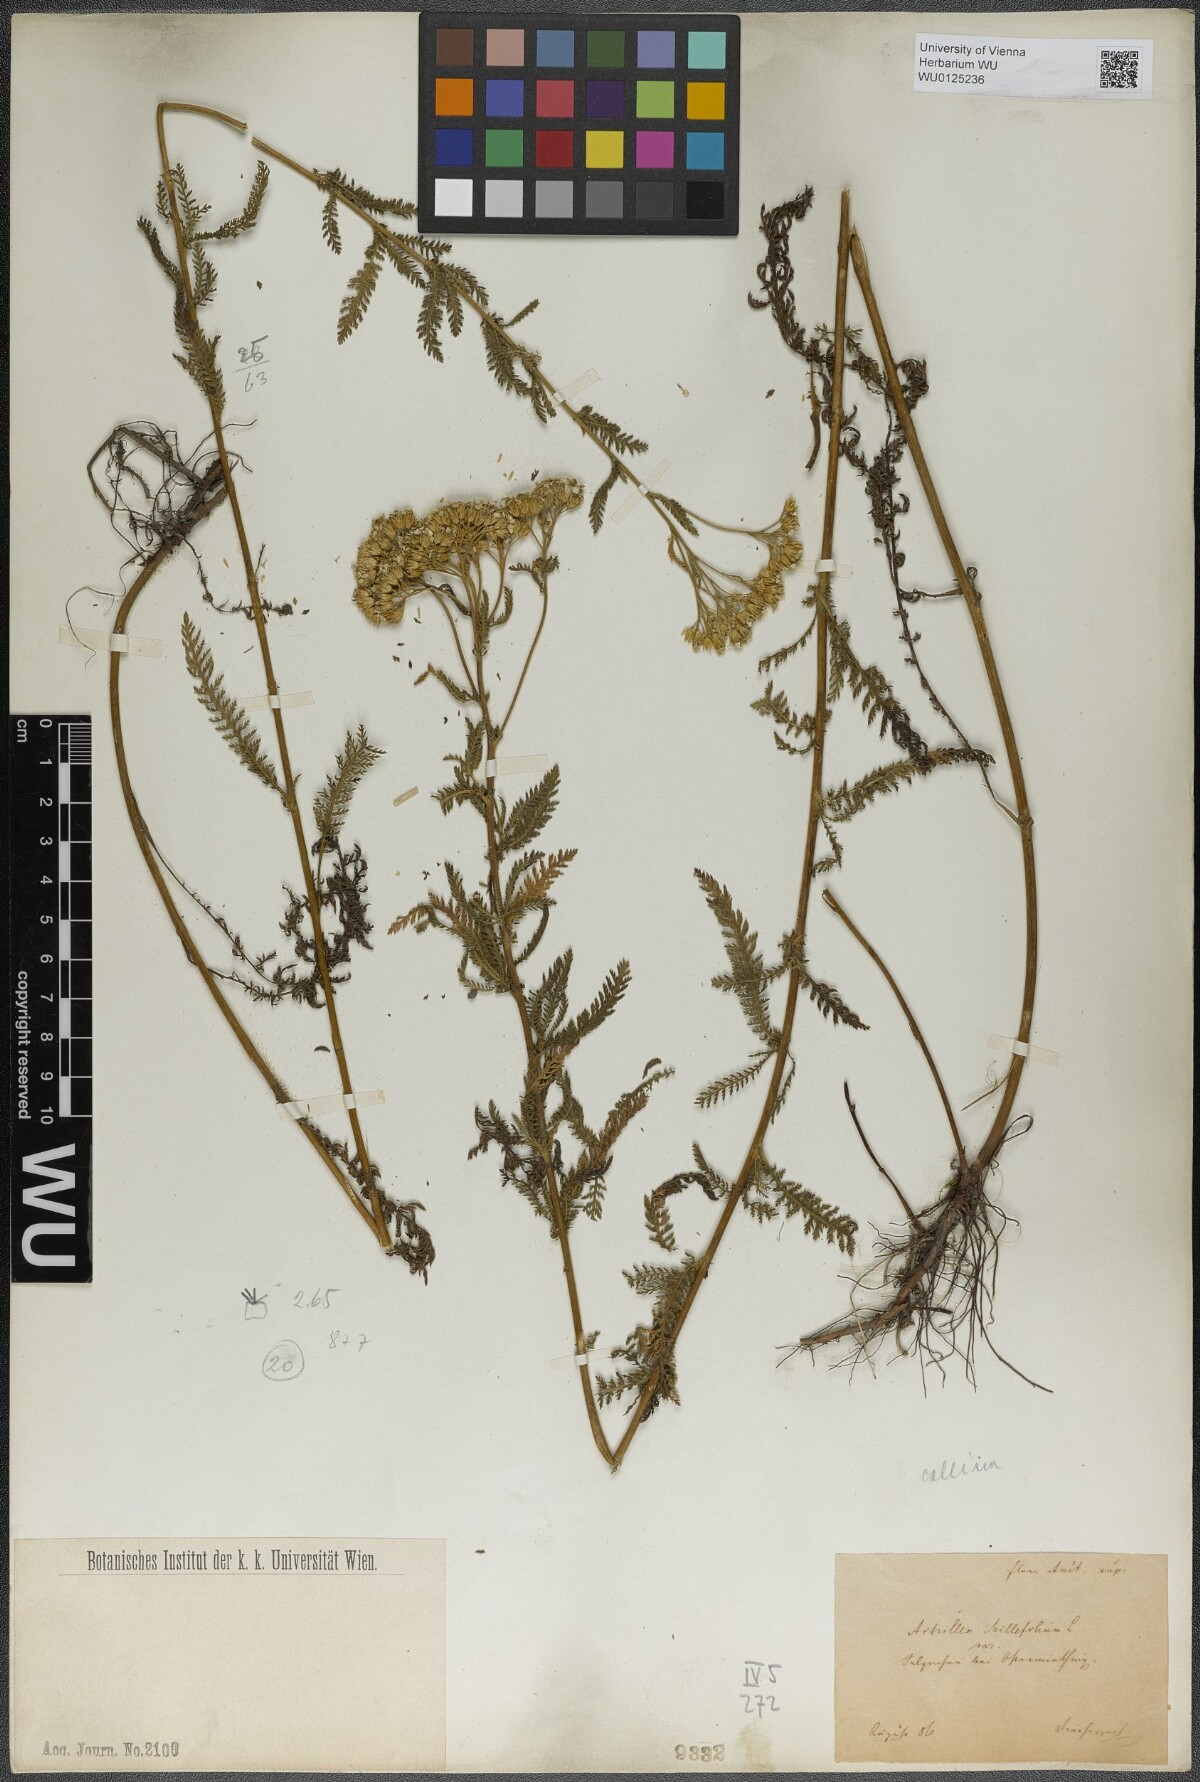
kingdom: Plantae
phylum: Tracheophyta
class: Magnoliopsida
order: Asterales
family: Asteraceae
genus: Achillea
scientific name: Achillea collina
